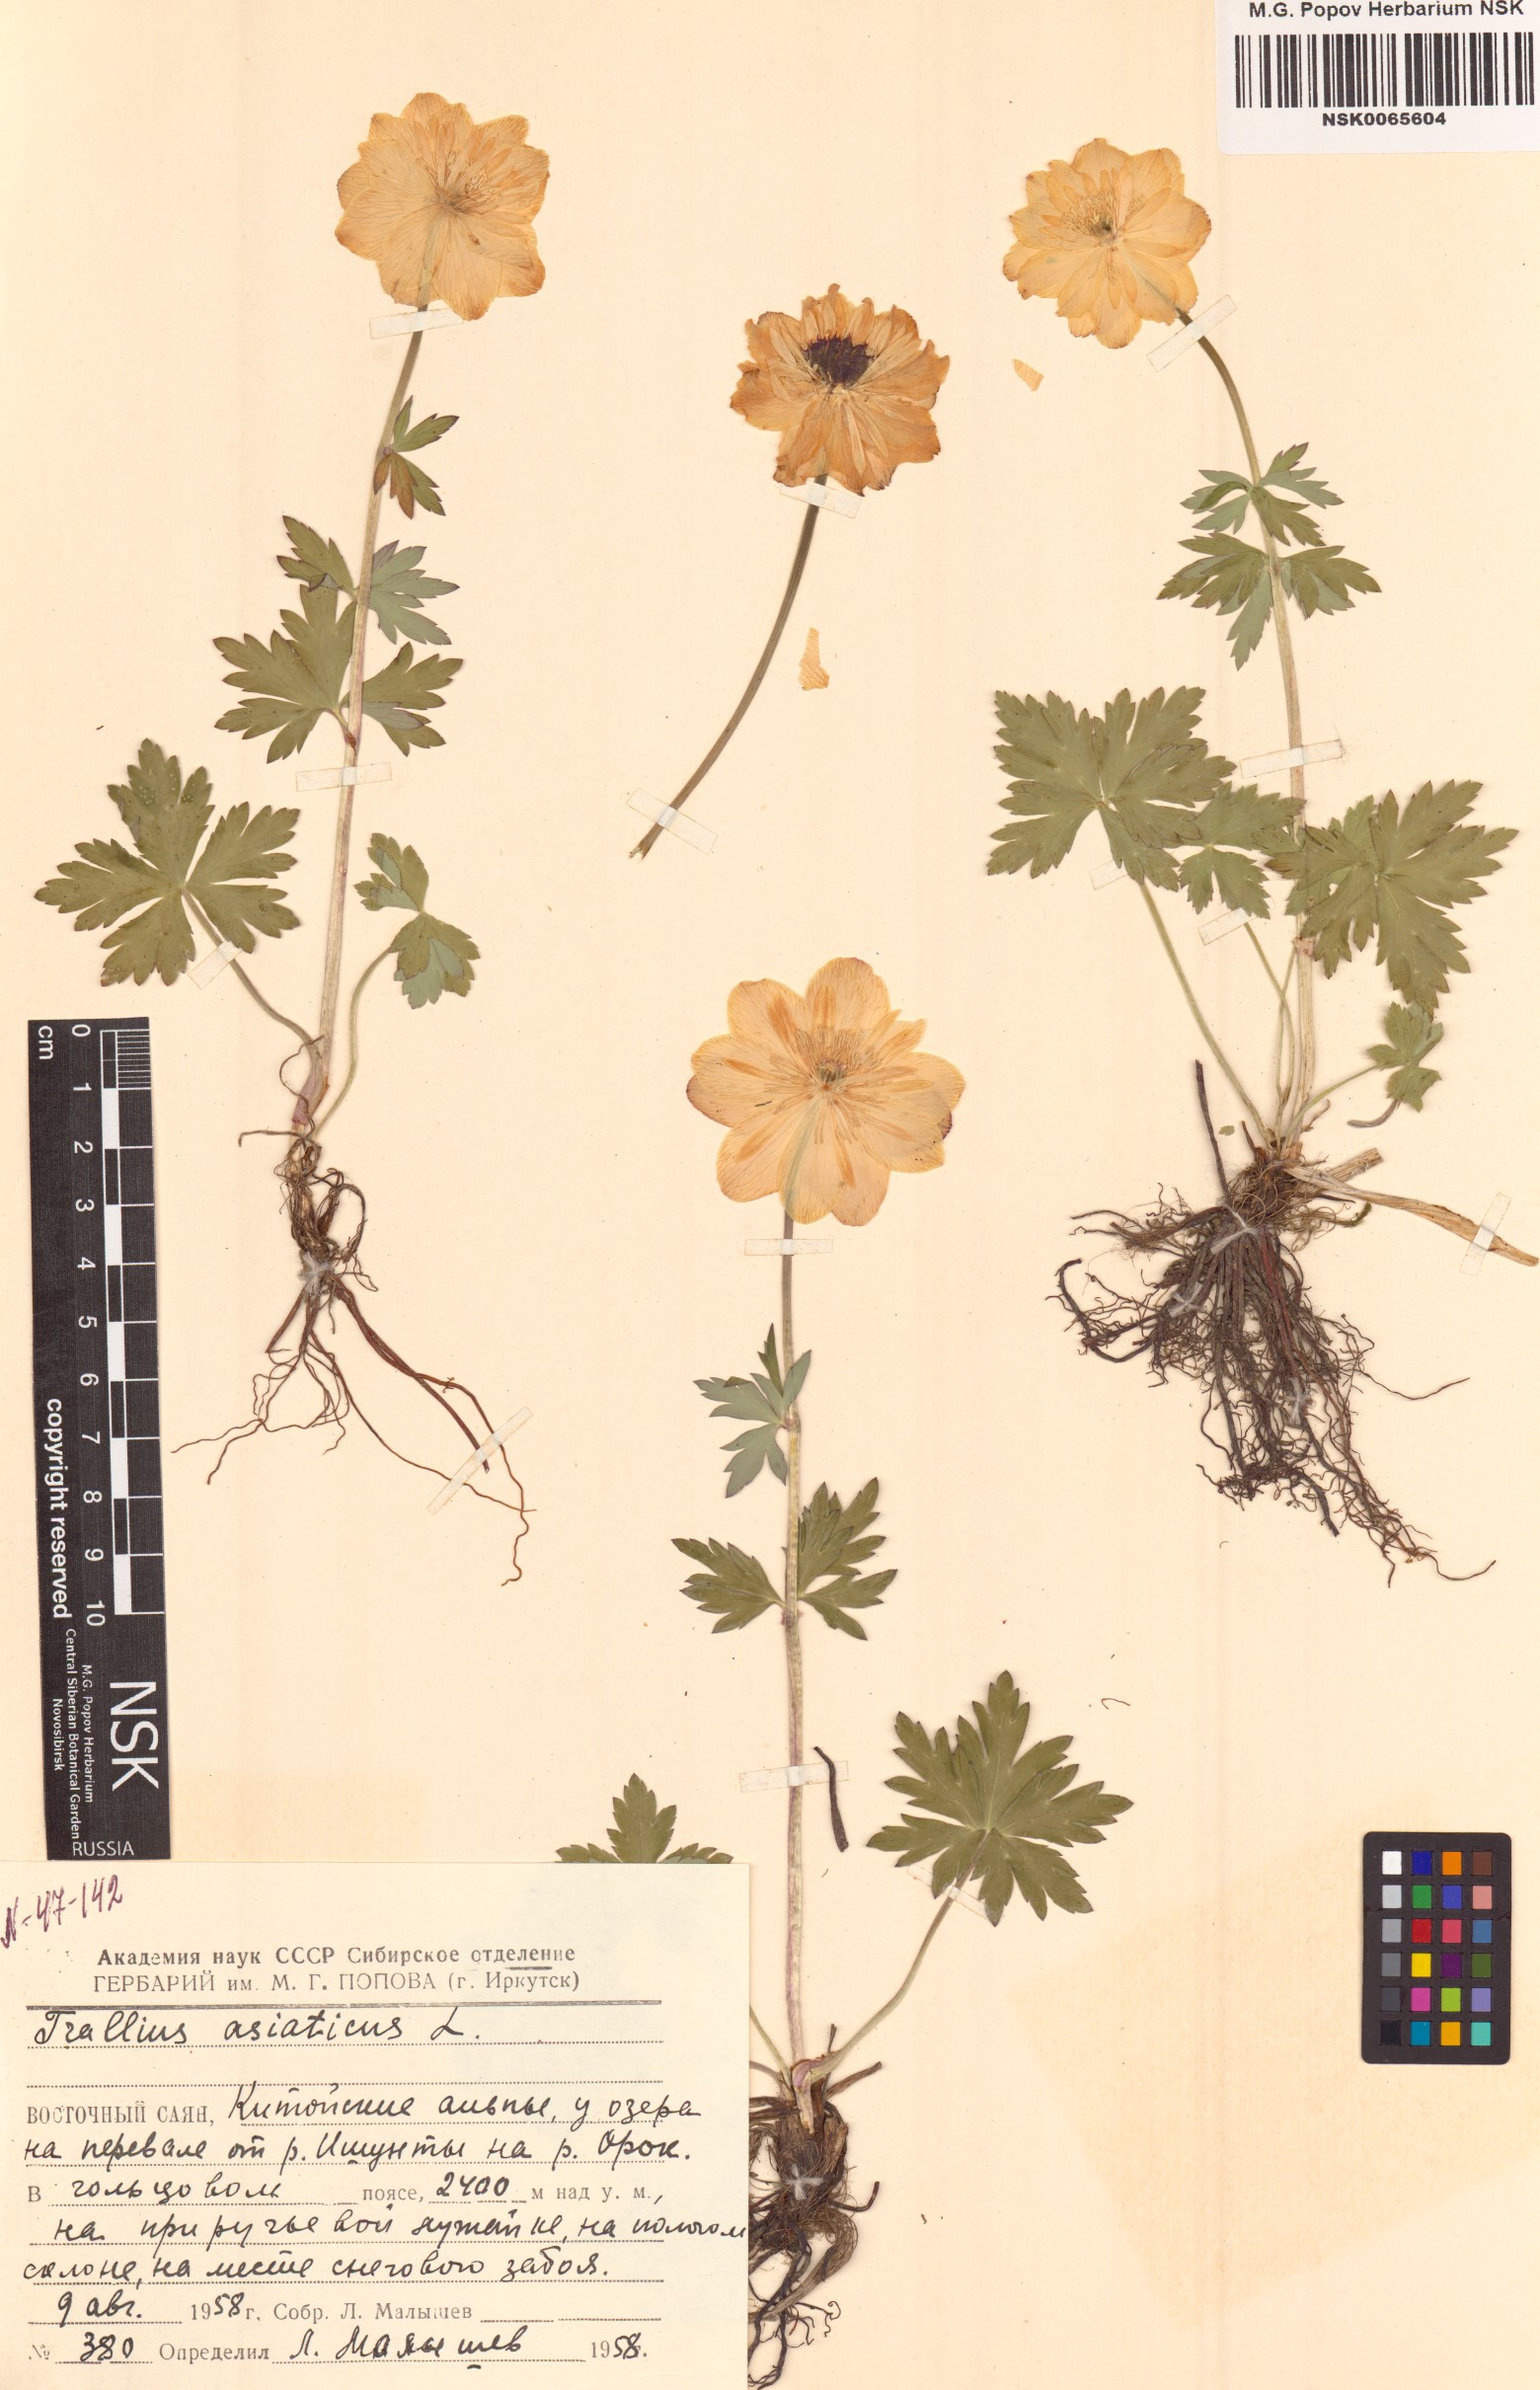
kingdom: Plantae
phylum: Tracheophyta
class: Magnoliopsida
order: Ranunculales
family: Ranunculaceae
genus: Trollius
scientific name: Trollius asiaticus
